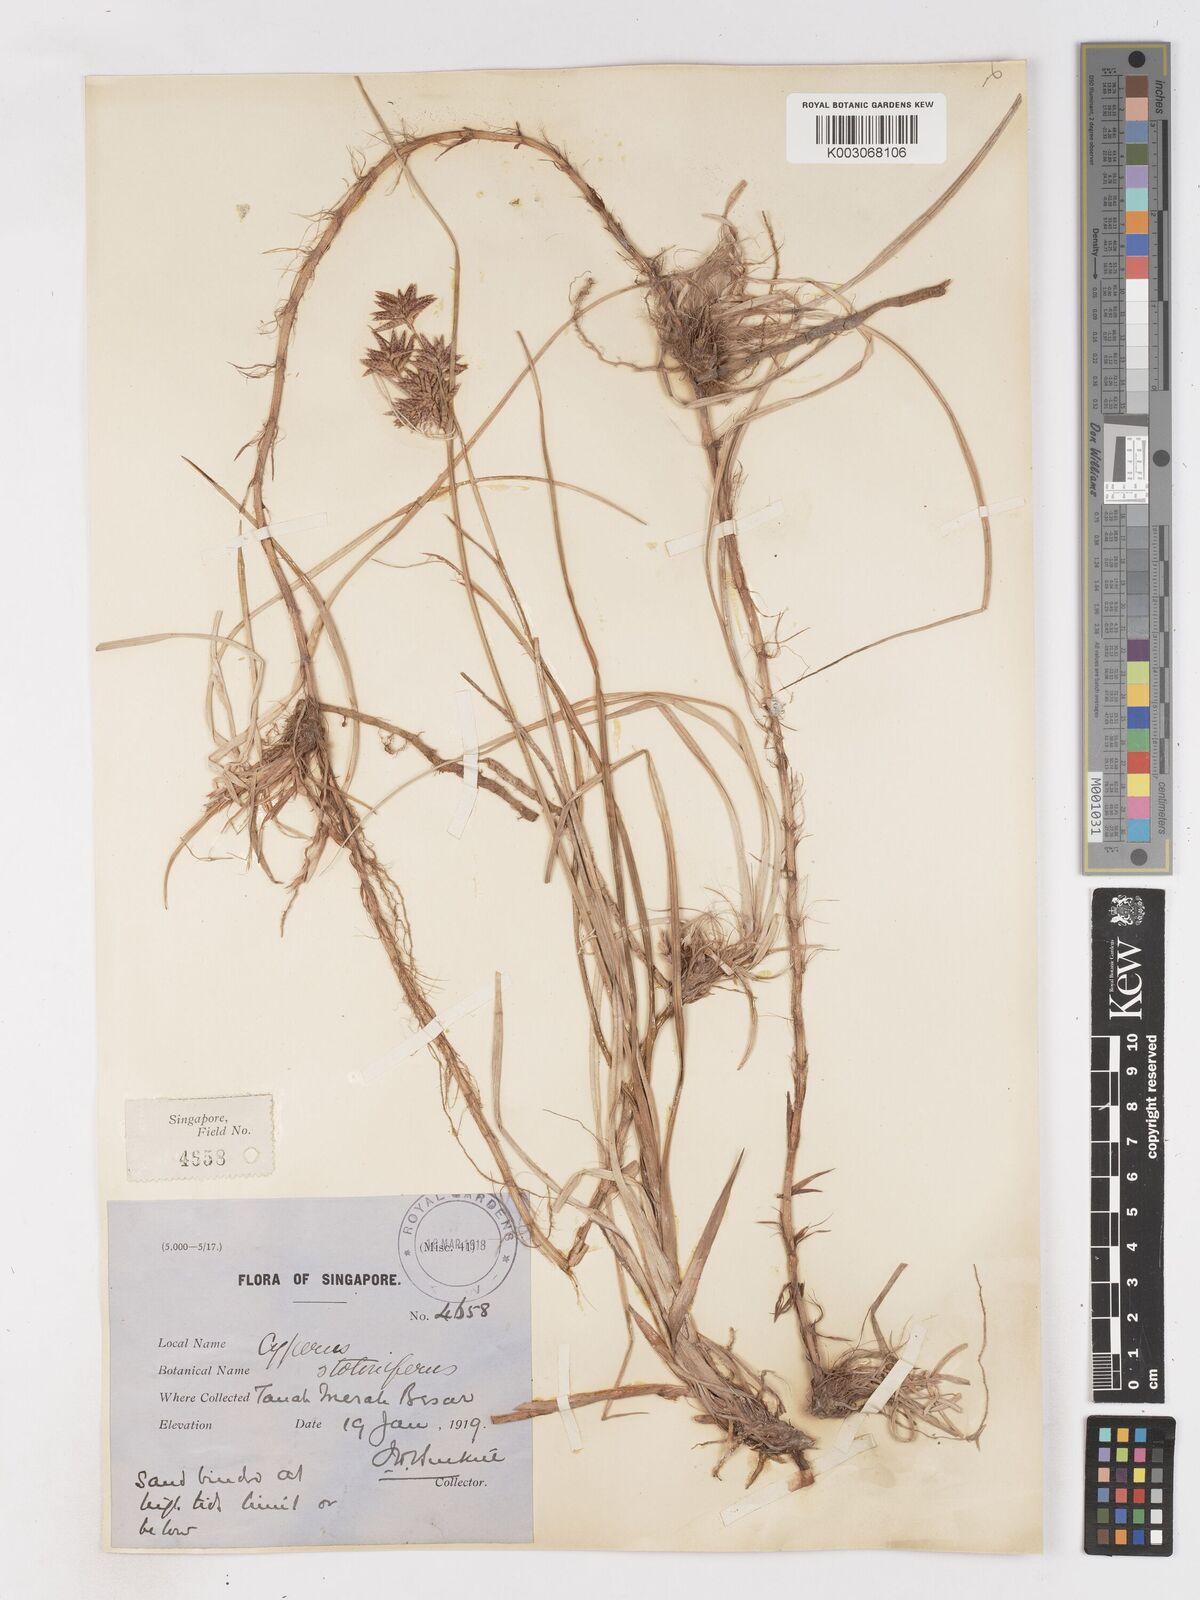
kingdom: Plantae
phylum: Tracheophyta
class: Liliopsida
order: Poales
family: Cyperaceae
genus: Cyperus
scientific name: Cyperus bulbosus
